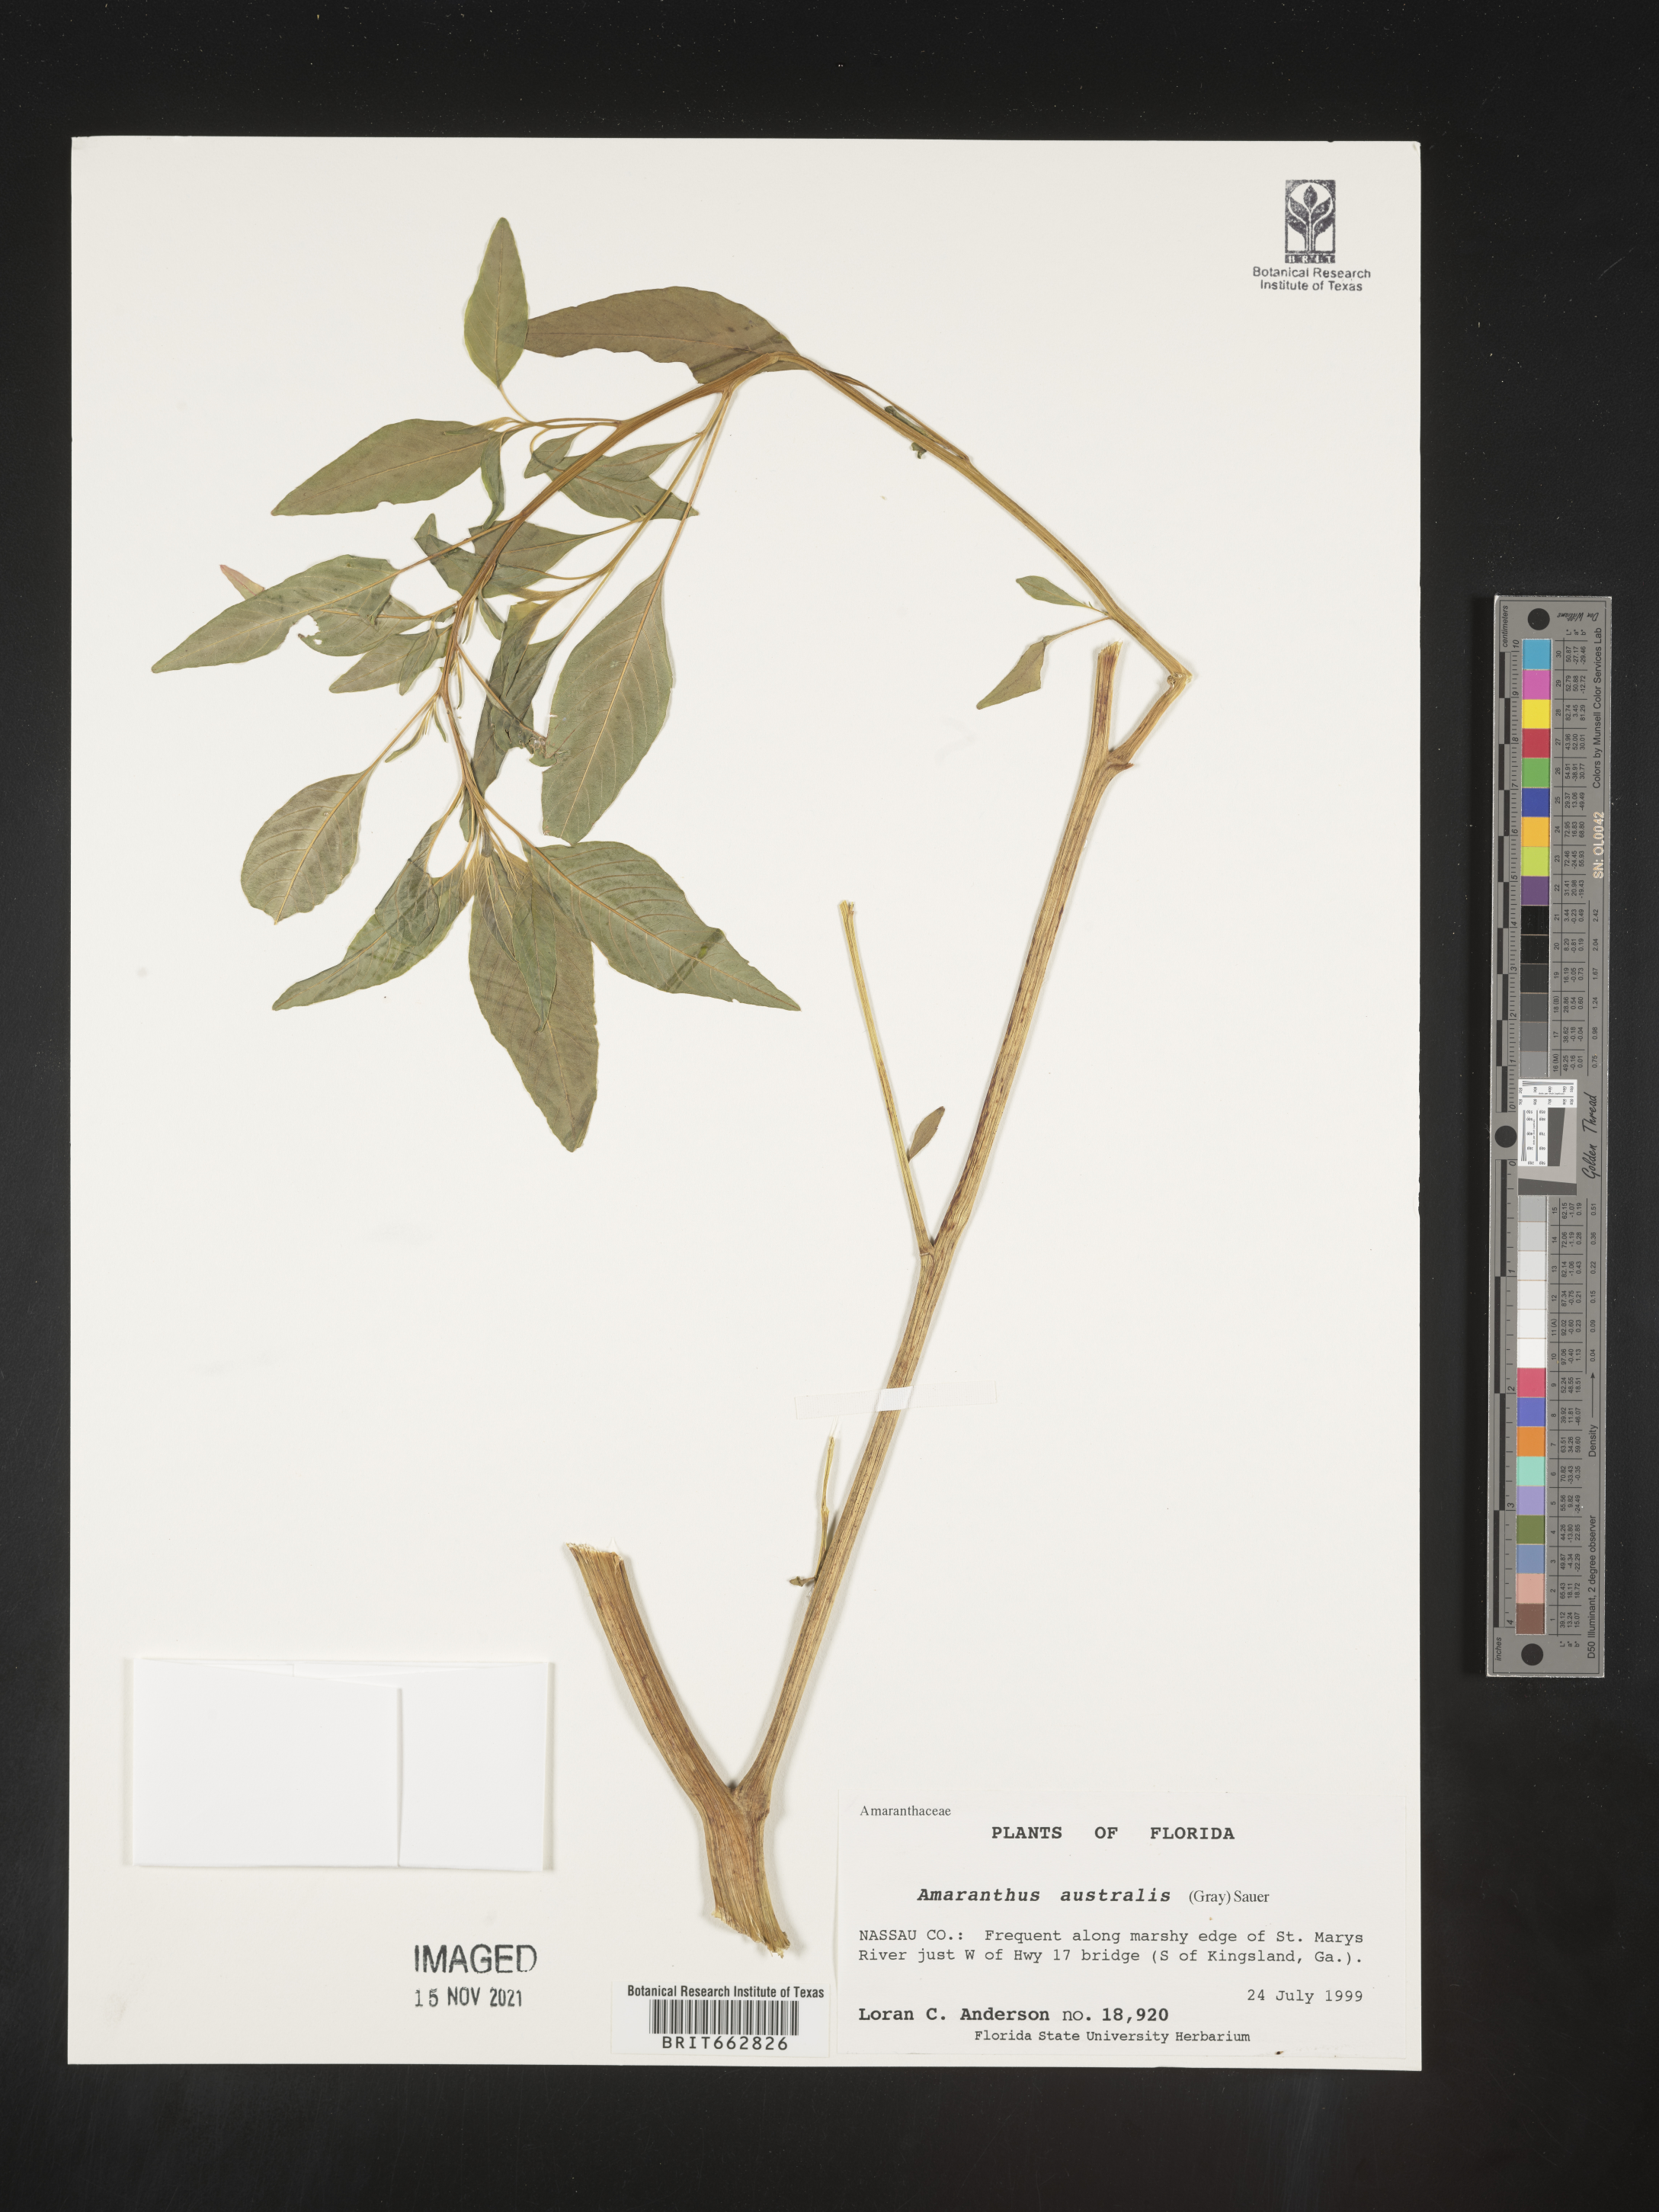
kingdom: Plantae
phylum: Tracheophyta
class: Magnoliopsida
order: Caryophyllales
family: Amaranthaceae
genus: Amaranthus
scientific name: Amaranthus australis
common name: Southern amaranth
